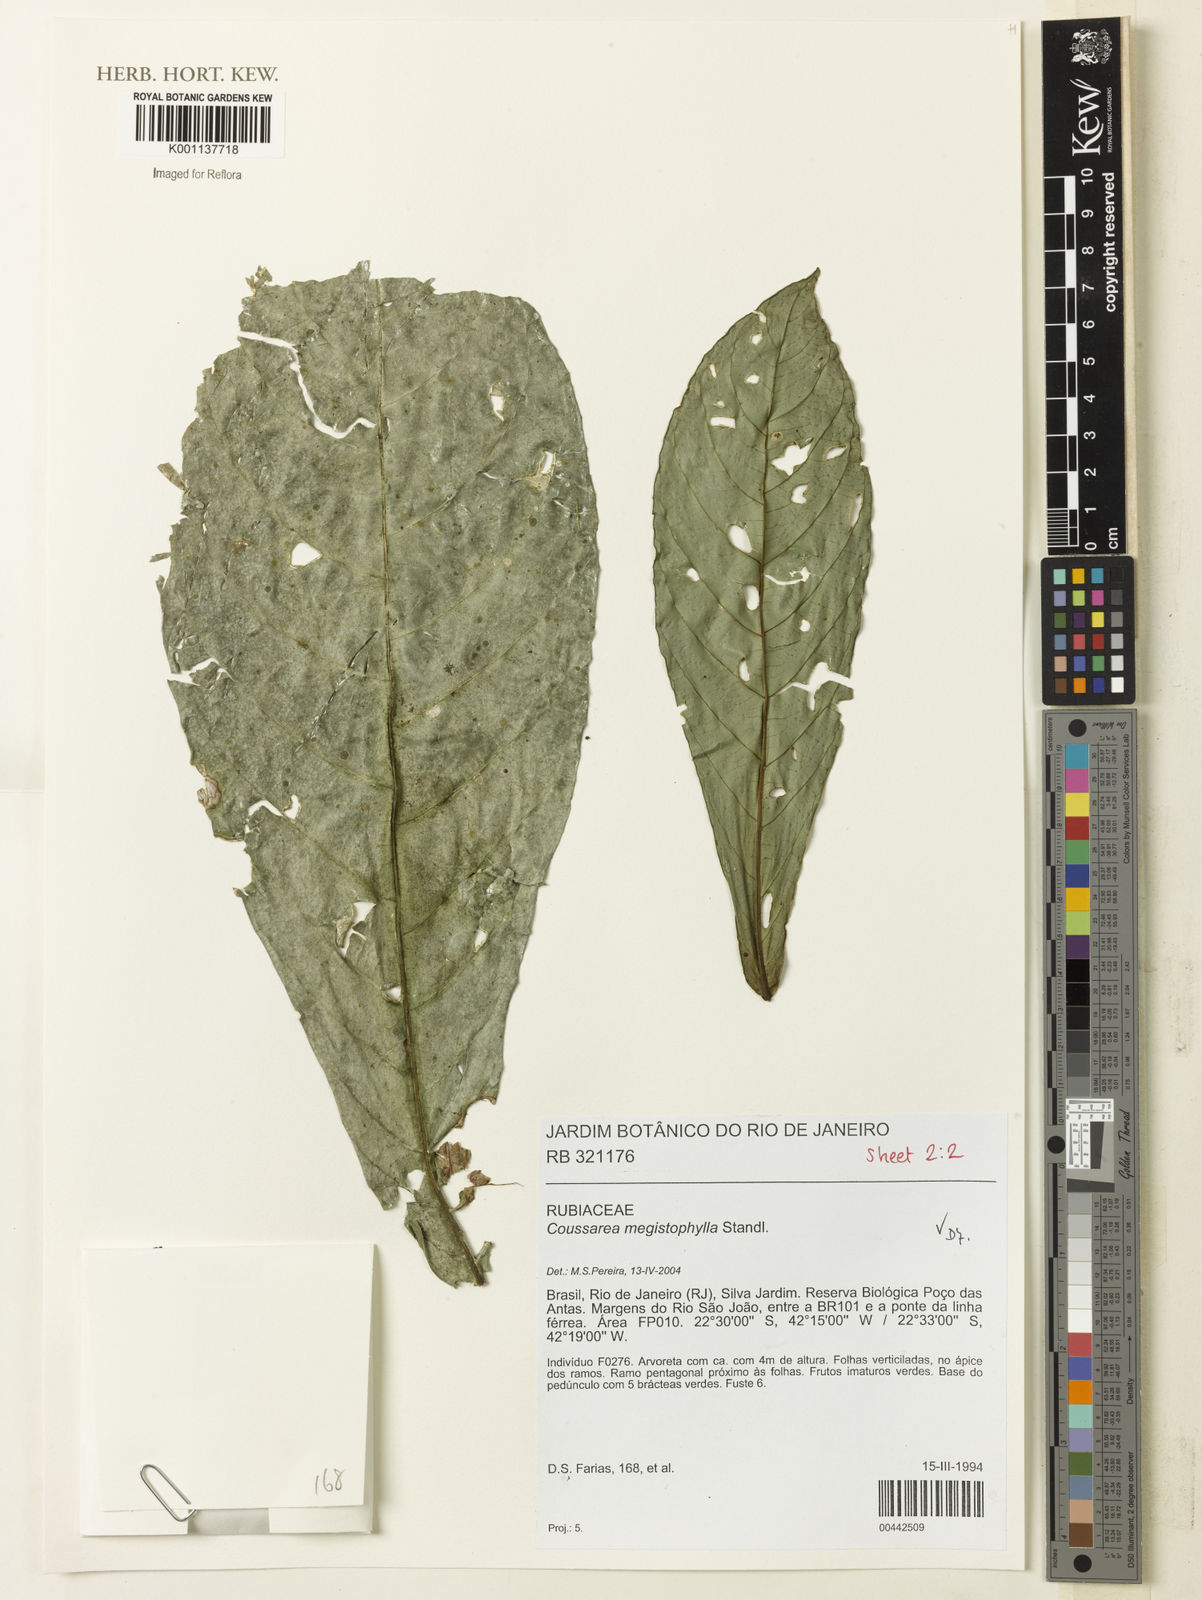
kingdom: Plantae
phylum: Tracheophyta
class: Magnoliopsida
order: Gentianales
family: Rubiaceae
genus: Coussarea
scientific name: Coussarea megistophylla
